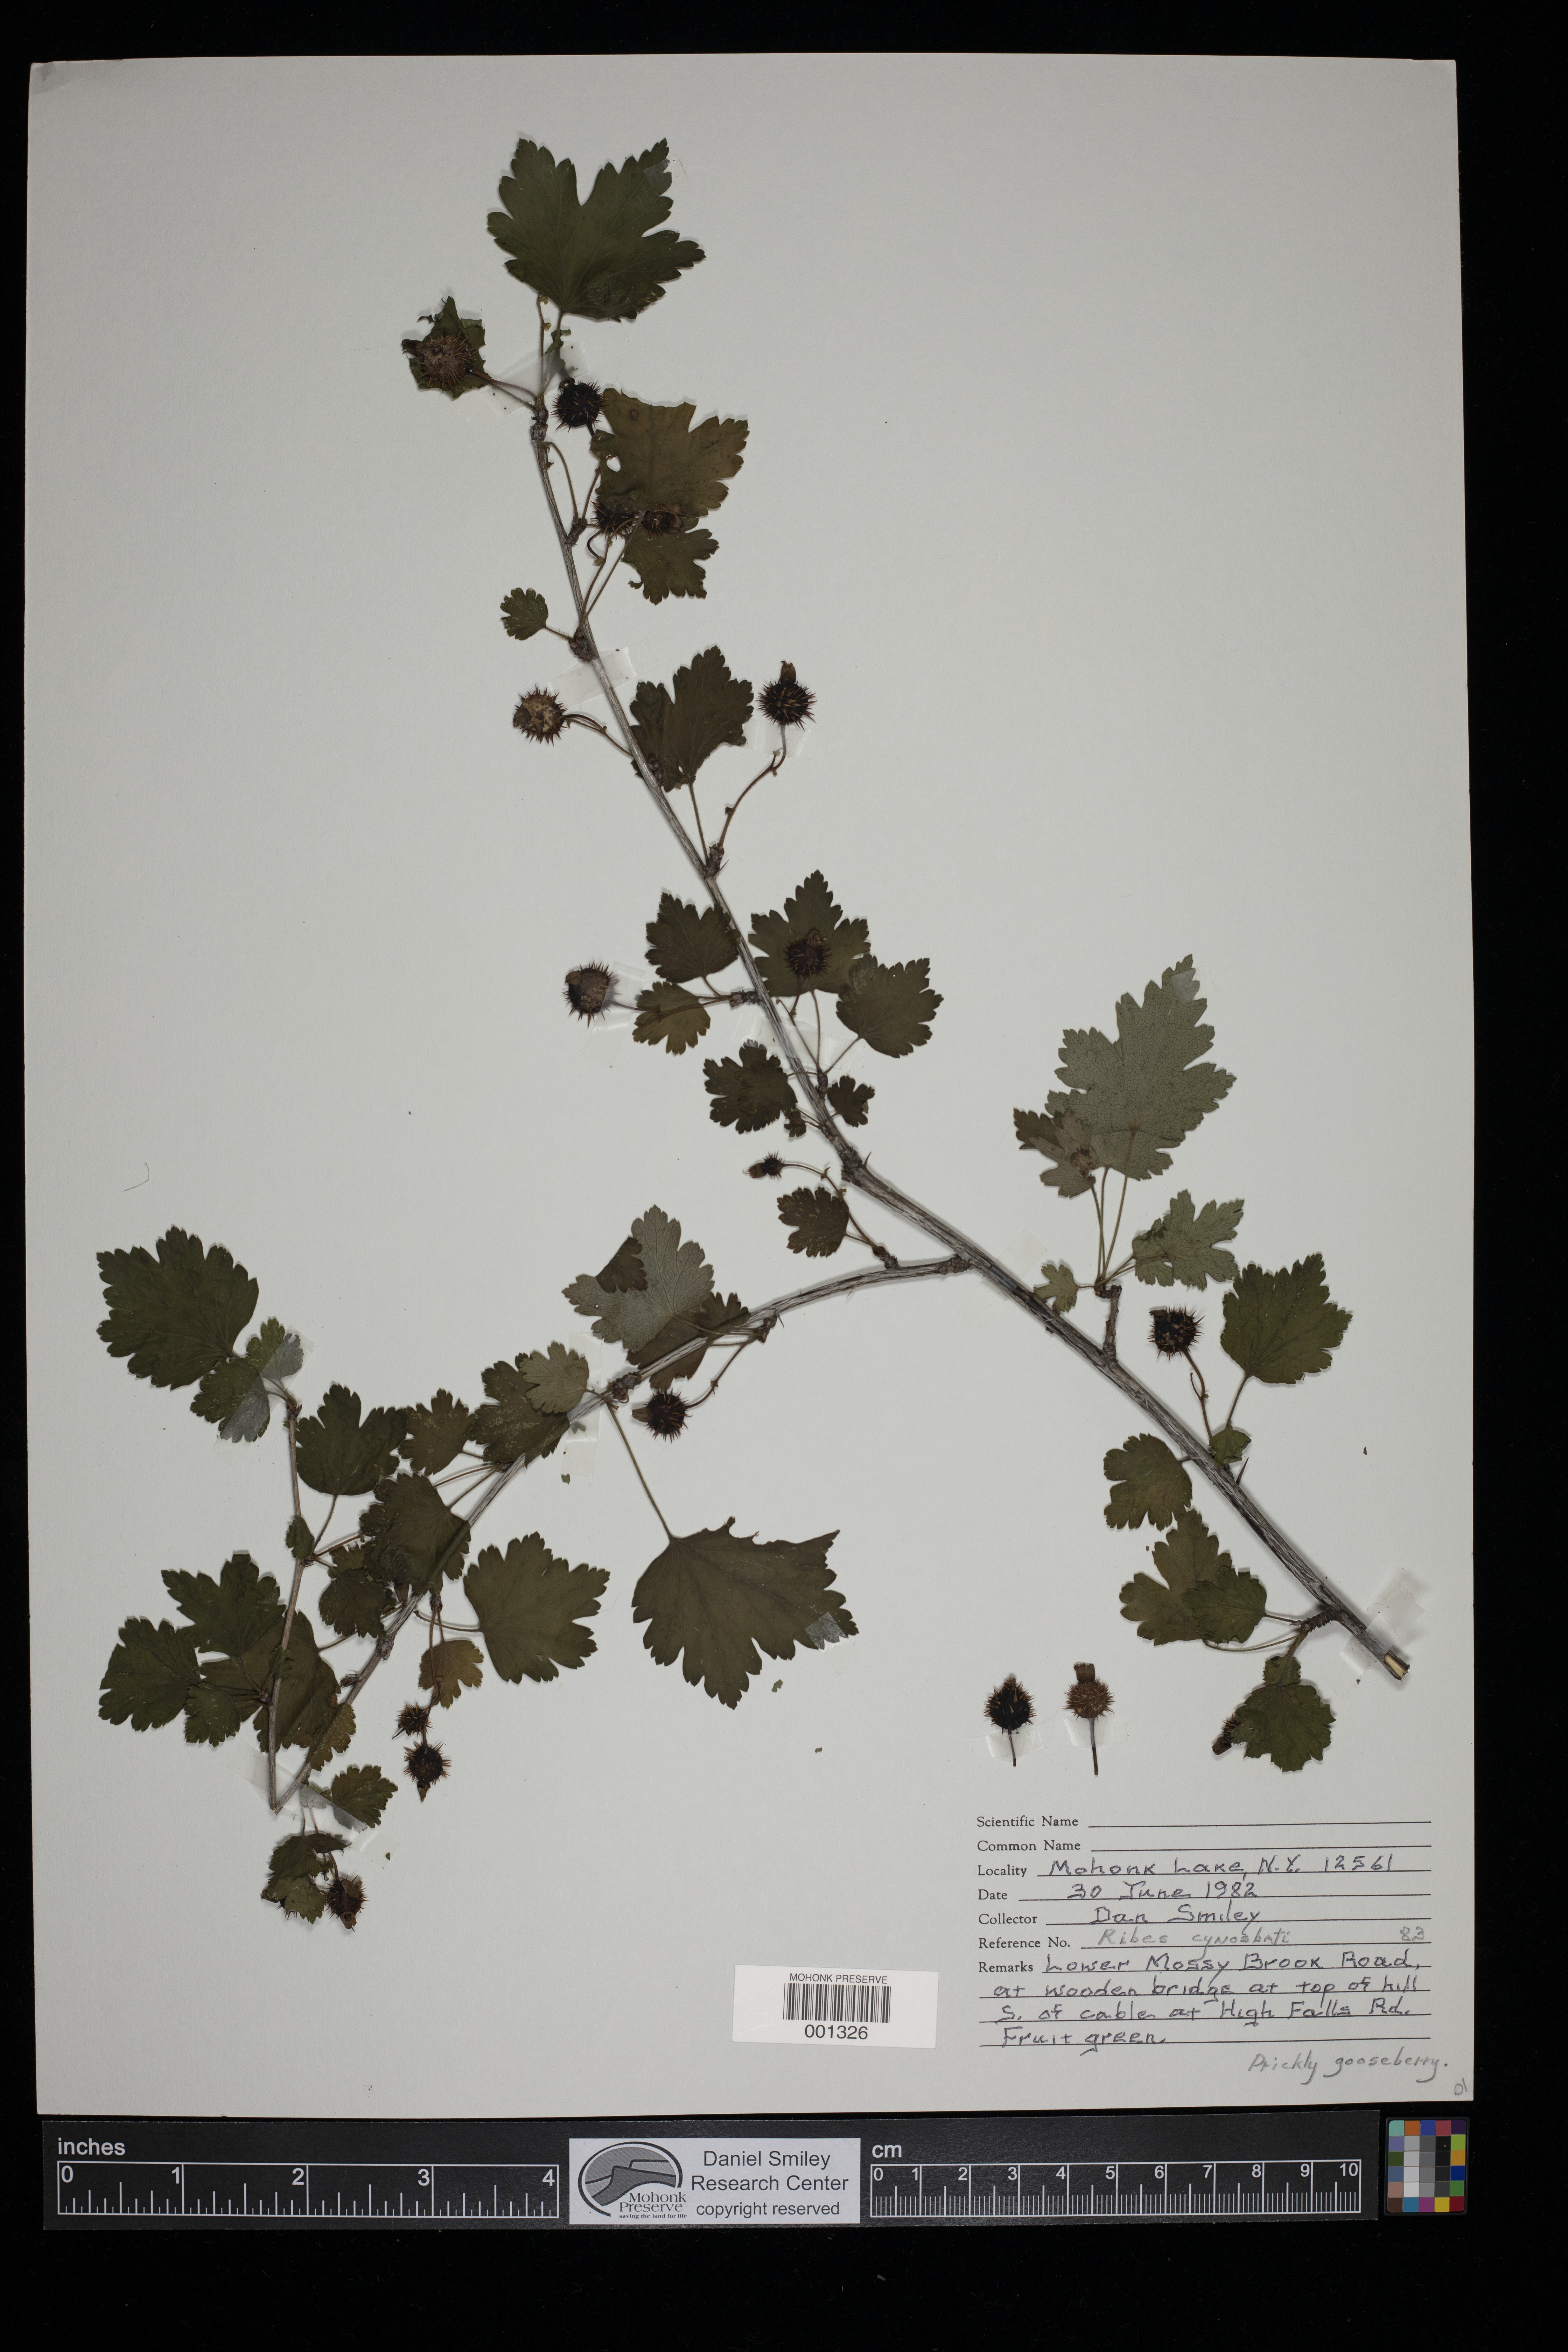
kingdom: Plantae
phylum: Tracheophyta
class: Magnoliopsida
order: Saxifragales
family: Grossulariaceae
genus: Ribes
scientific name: Ribes cynosbati
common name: American gooseberry
